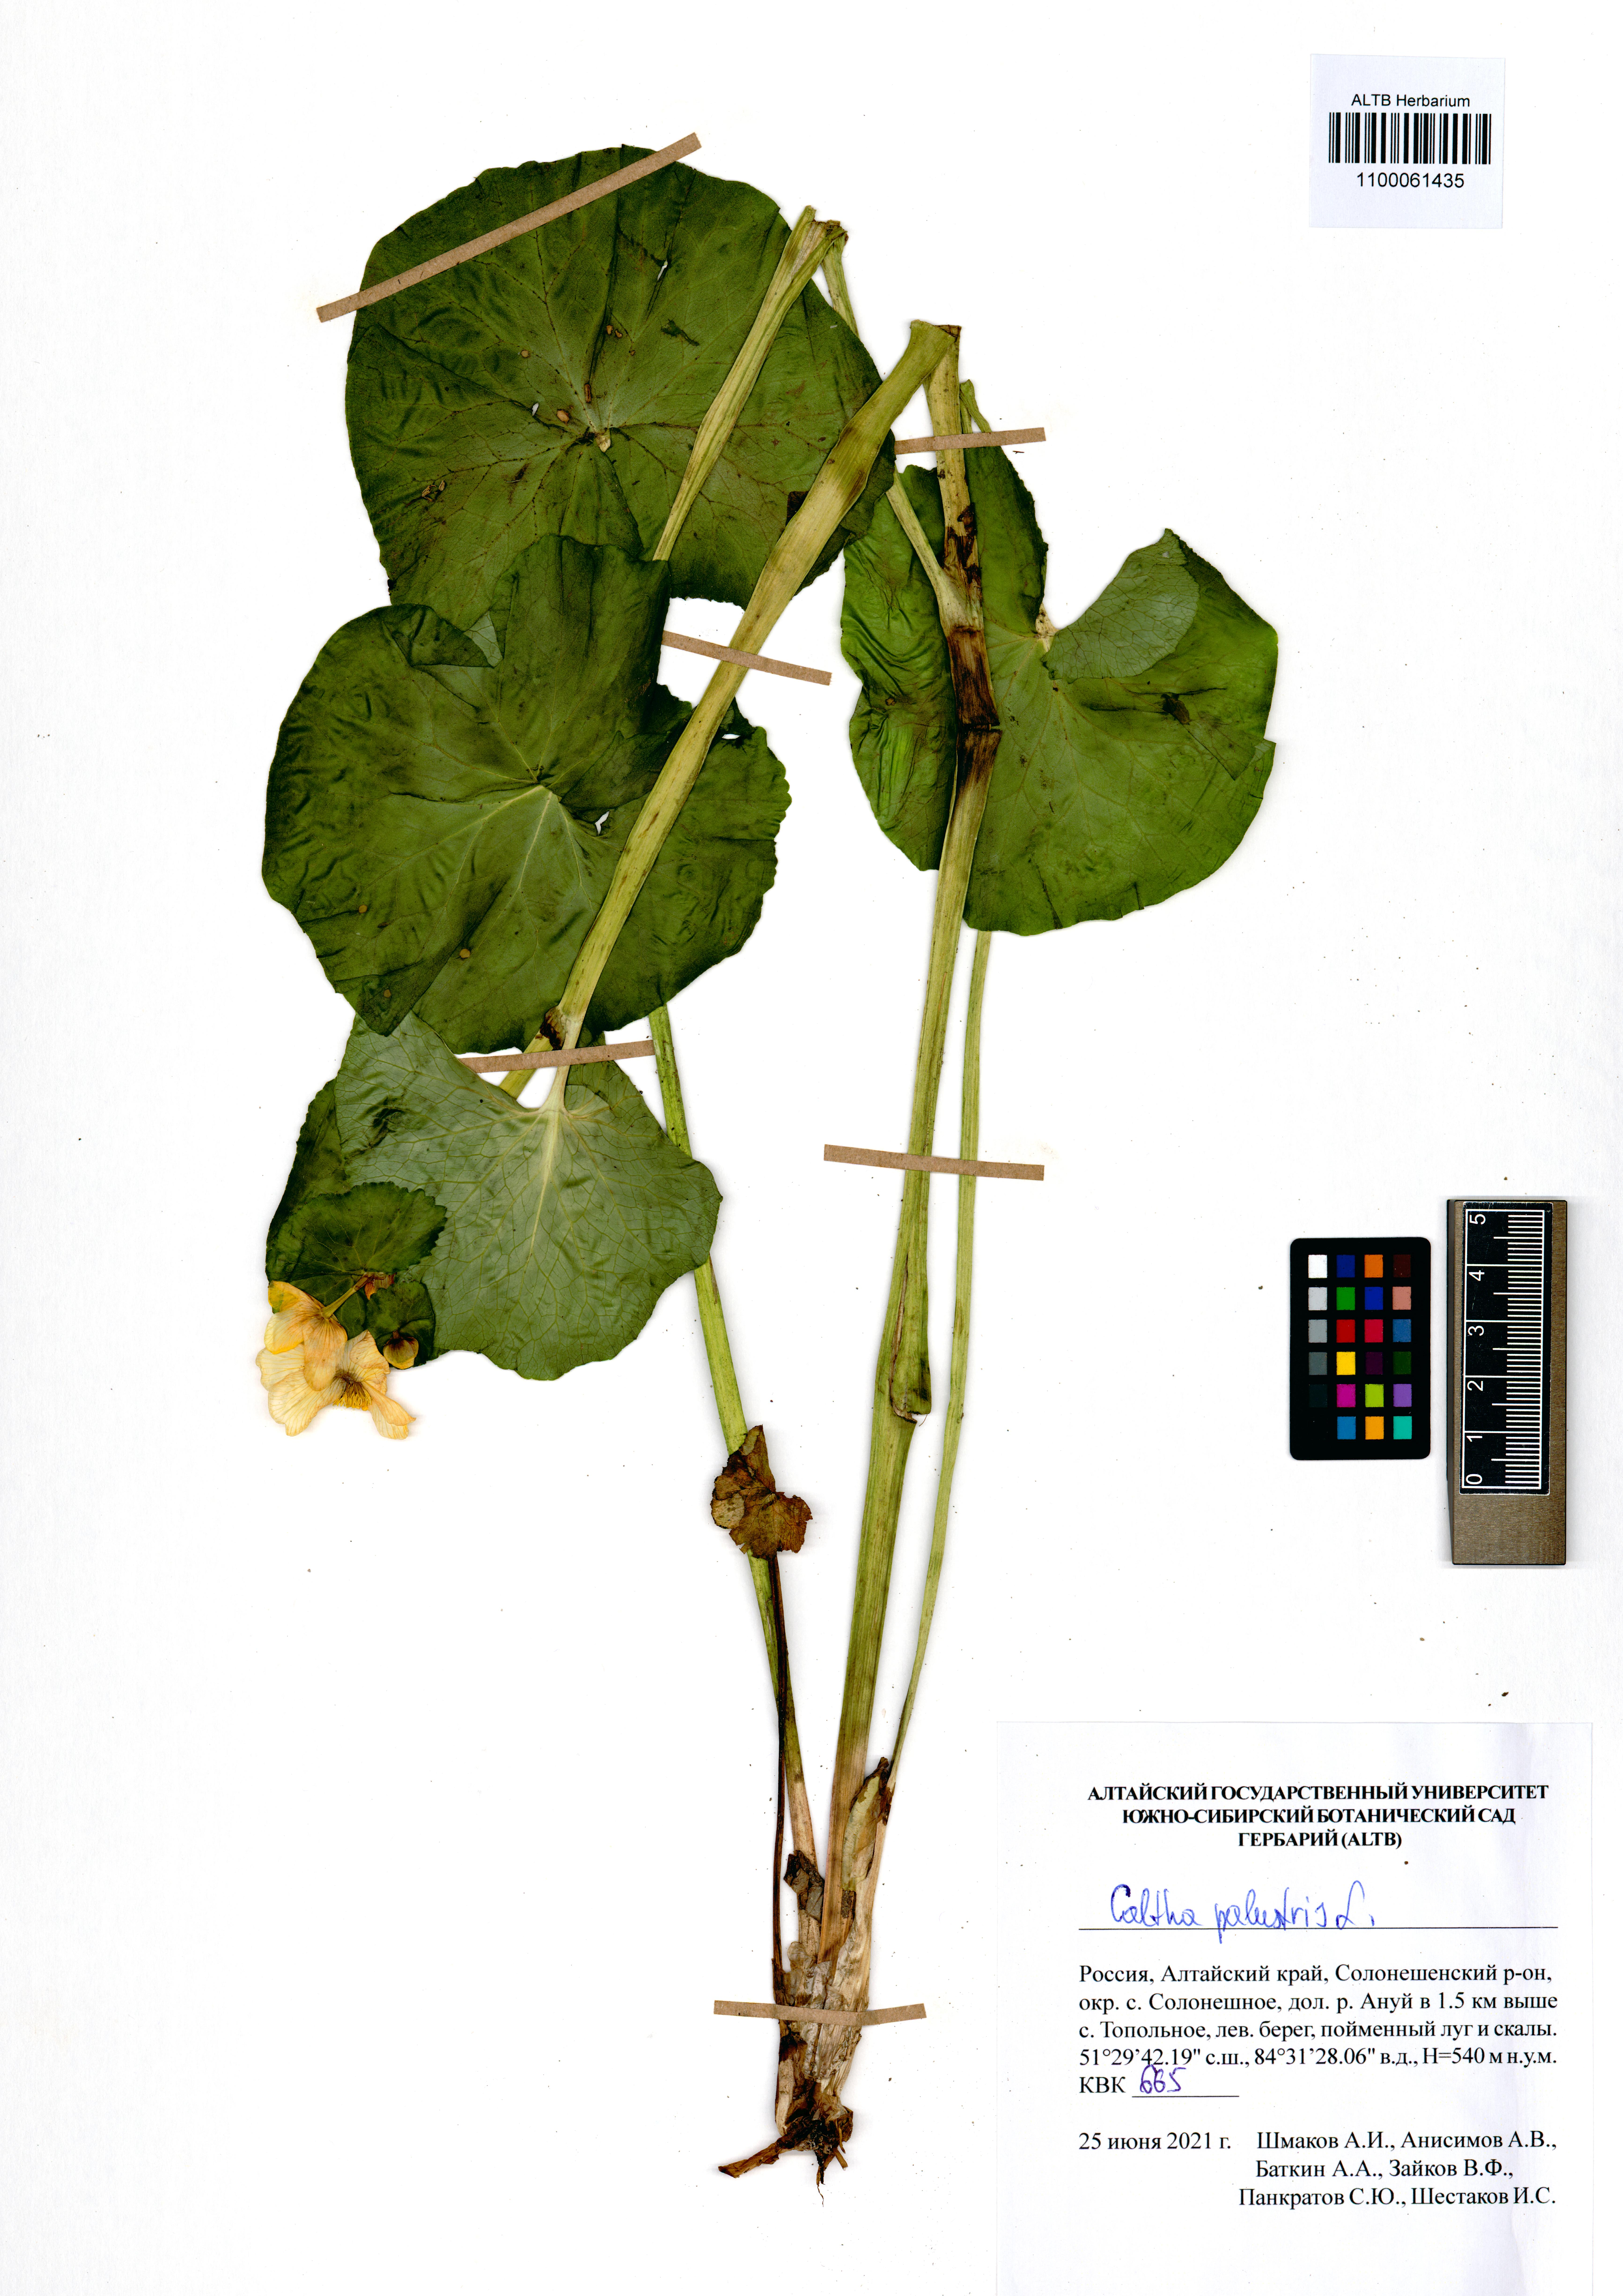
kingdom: Plantae
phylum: Tracheophyta
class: Magnoliopsida
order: Ranunculales
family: Ranunculaceae
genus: Caltha
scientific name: Caltha palustris
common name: Marsh marigold
